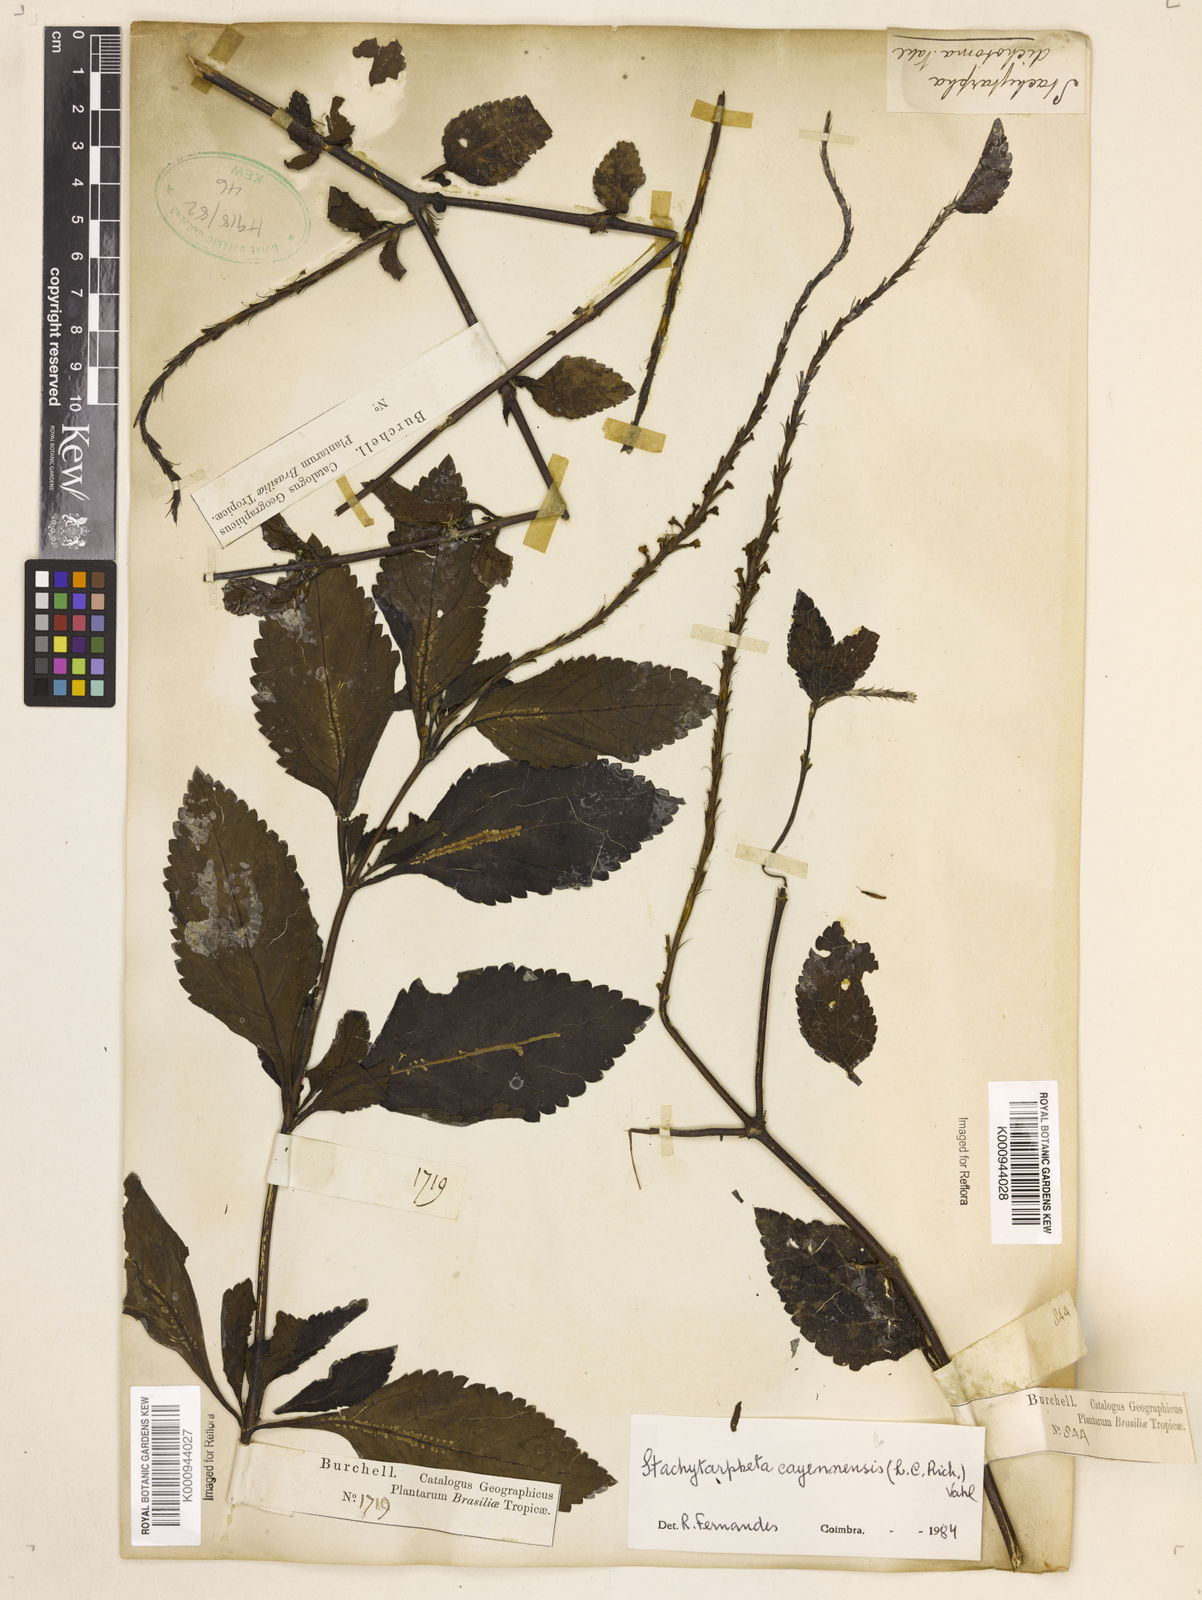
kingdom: Plantae
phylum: Tracheophyta
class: Magnoliopsida
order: Lamiales
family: Verbenaceae
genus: Aloysia
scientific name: Aloysia
